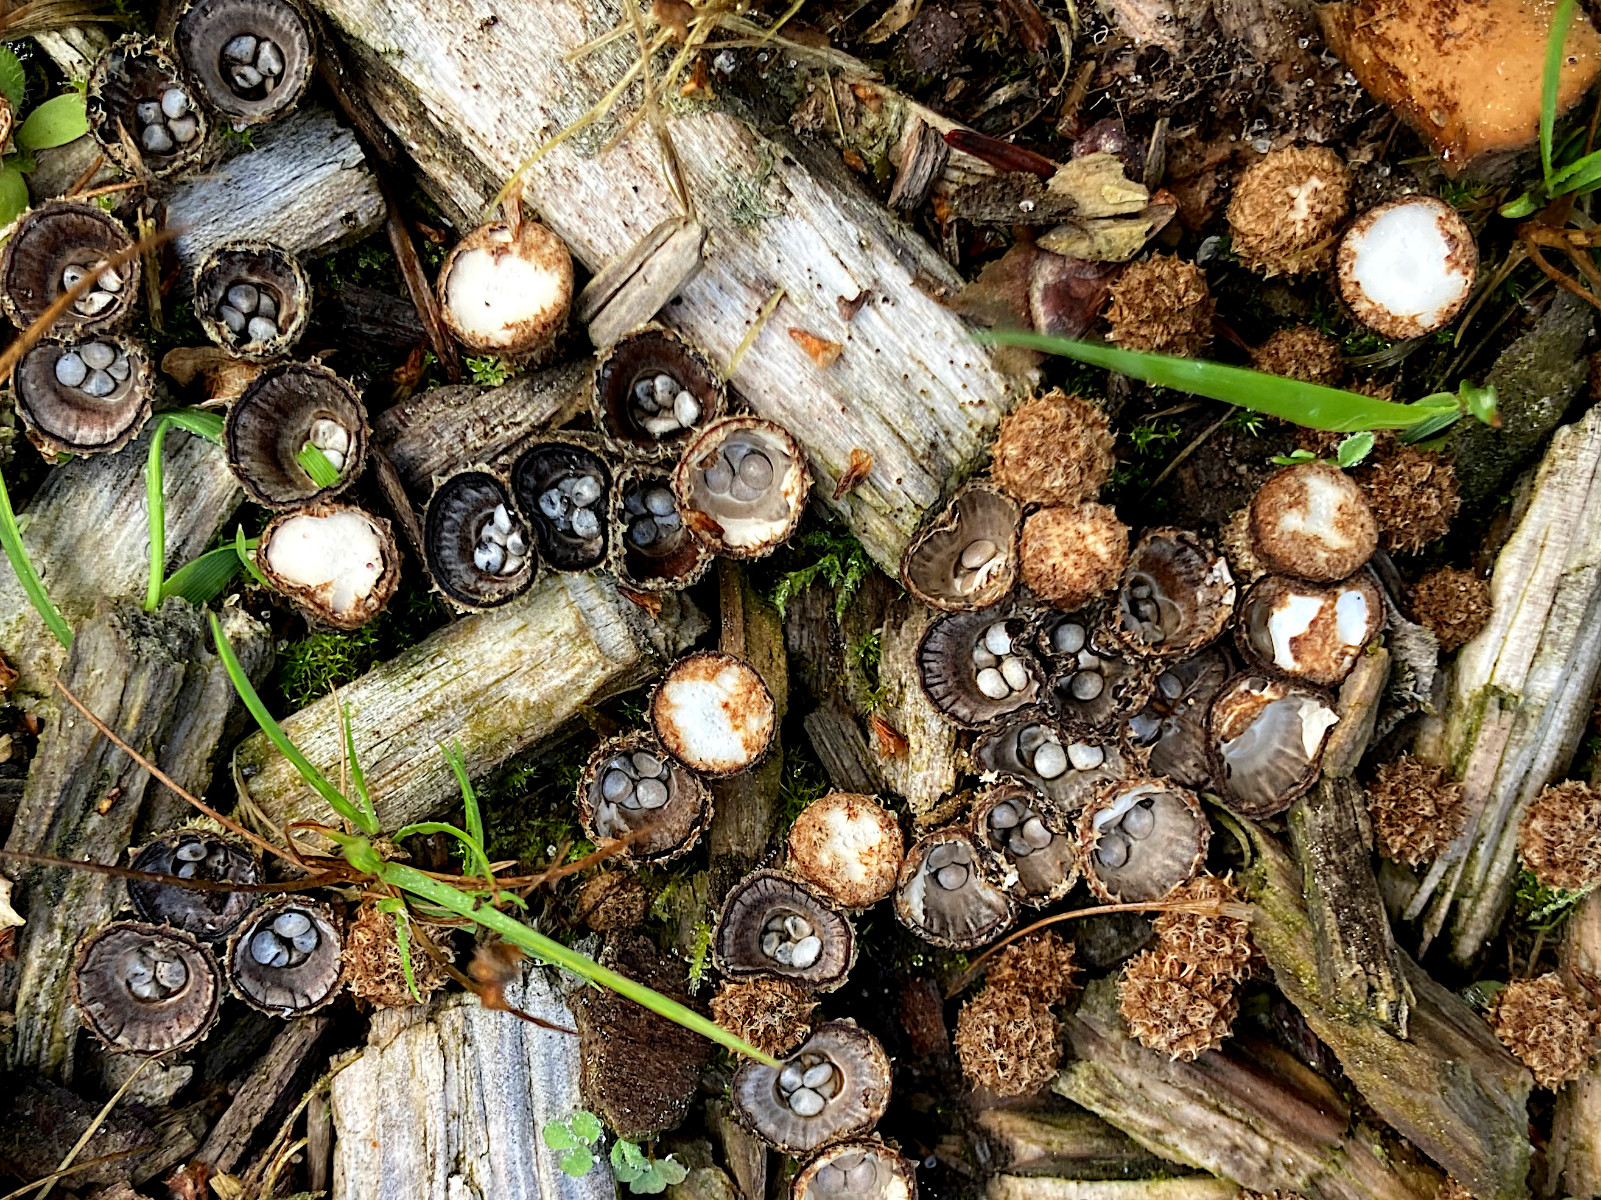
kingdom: Fungi
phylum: Basidiomycota
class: Agaricomycetes
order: Agaricales
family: Agaricaceae
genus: Cyathus
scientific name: Cyathus striatus
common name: stribet redesvamp
